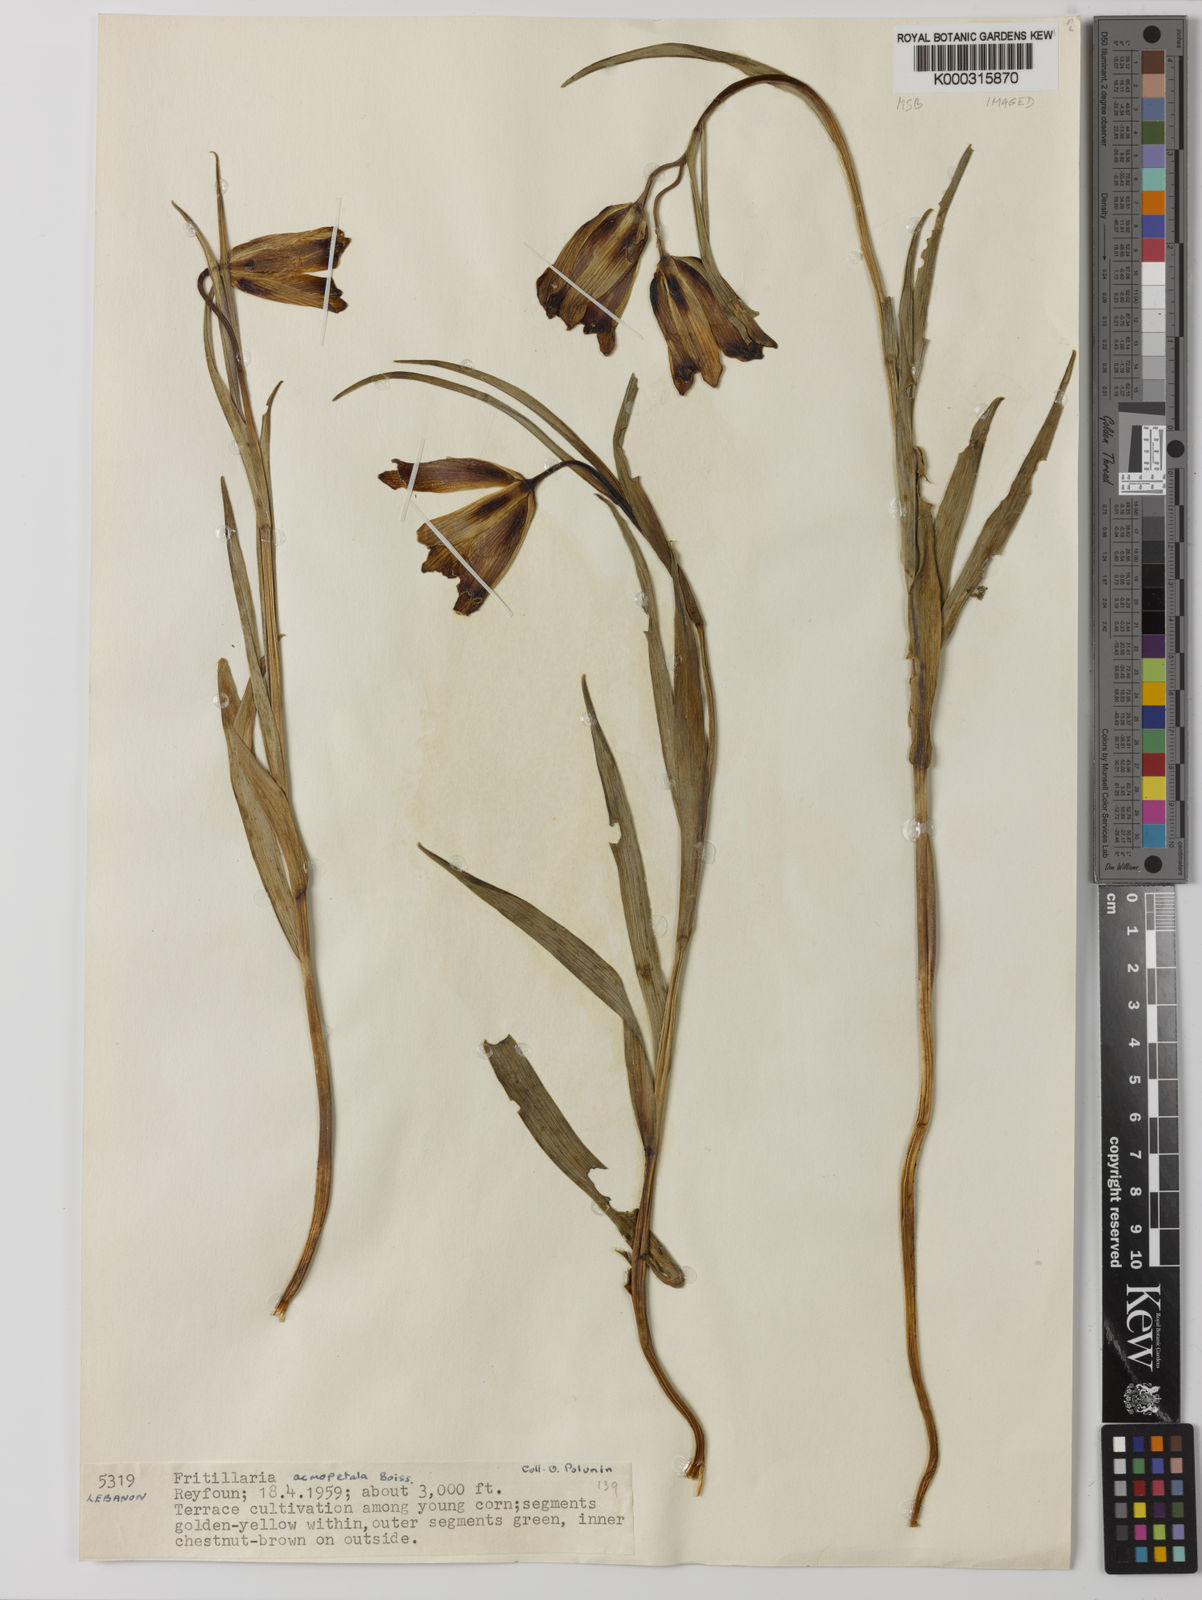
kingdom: Plantae
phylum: Tracheophyta
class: Liliopsida
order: Liliales
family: Liliaceae
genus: Fritillaria
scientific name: Fritillaria acmopetala
